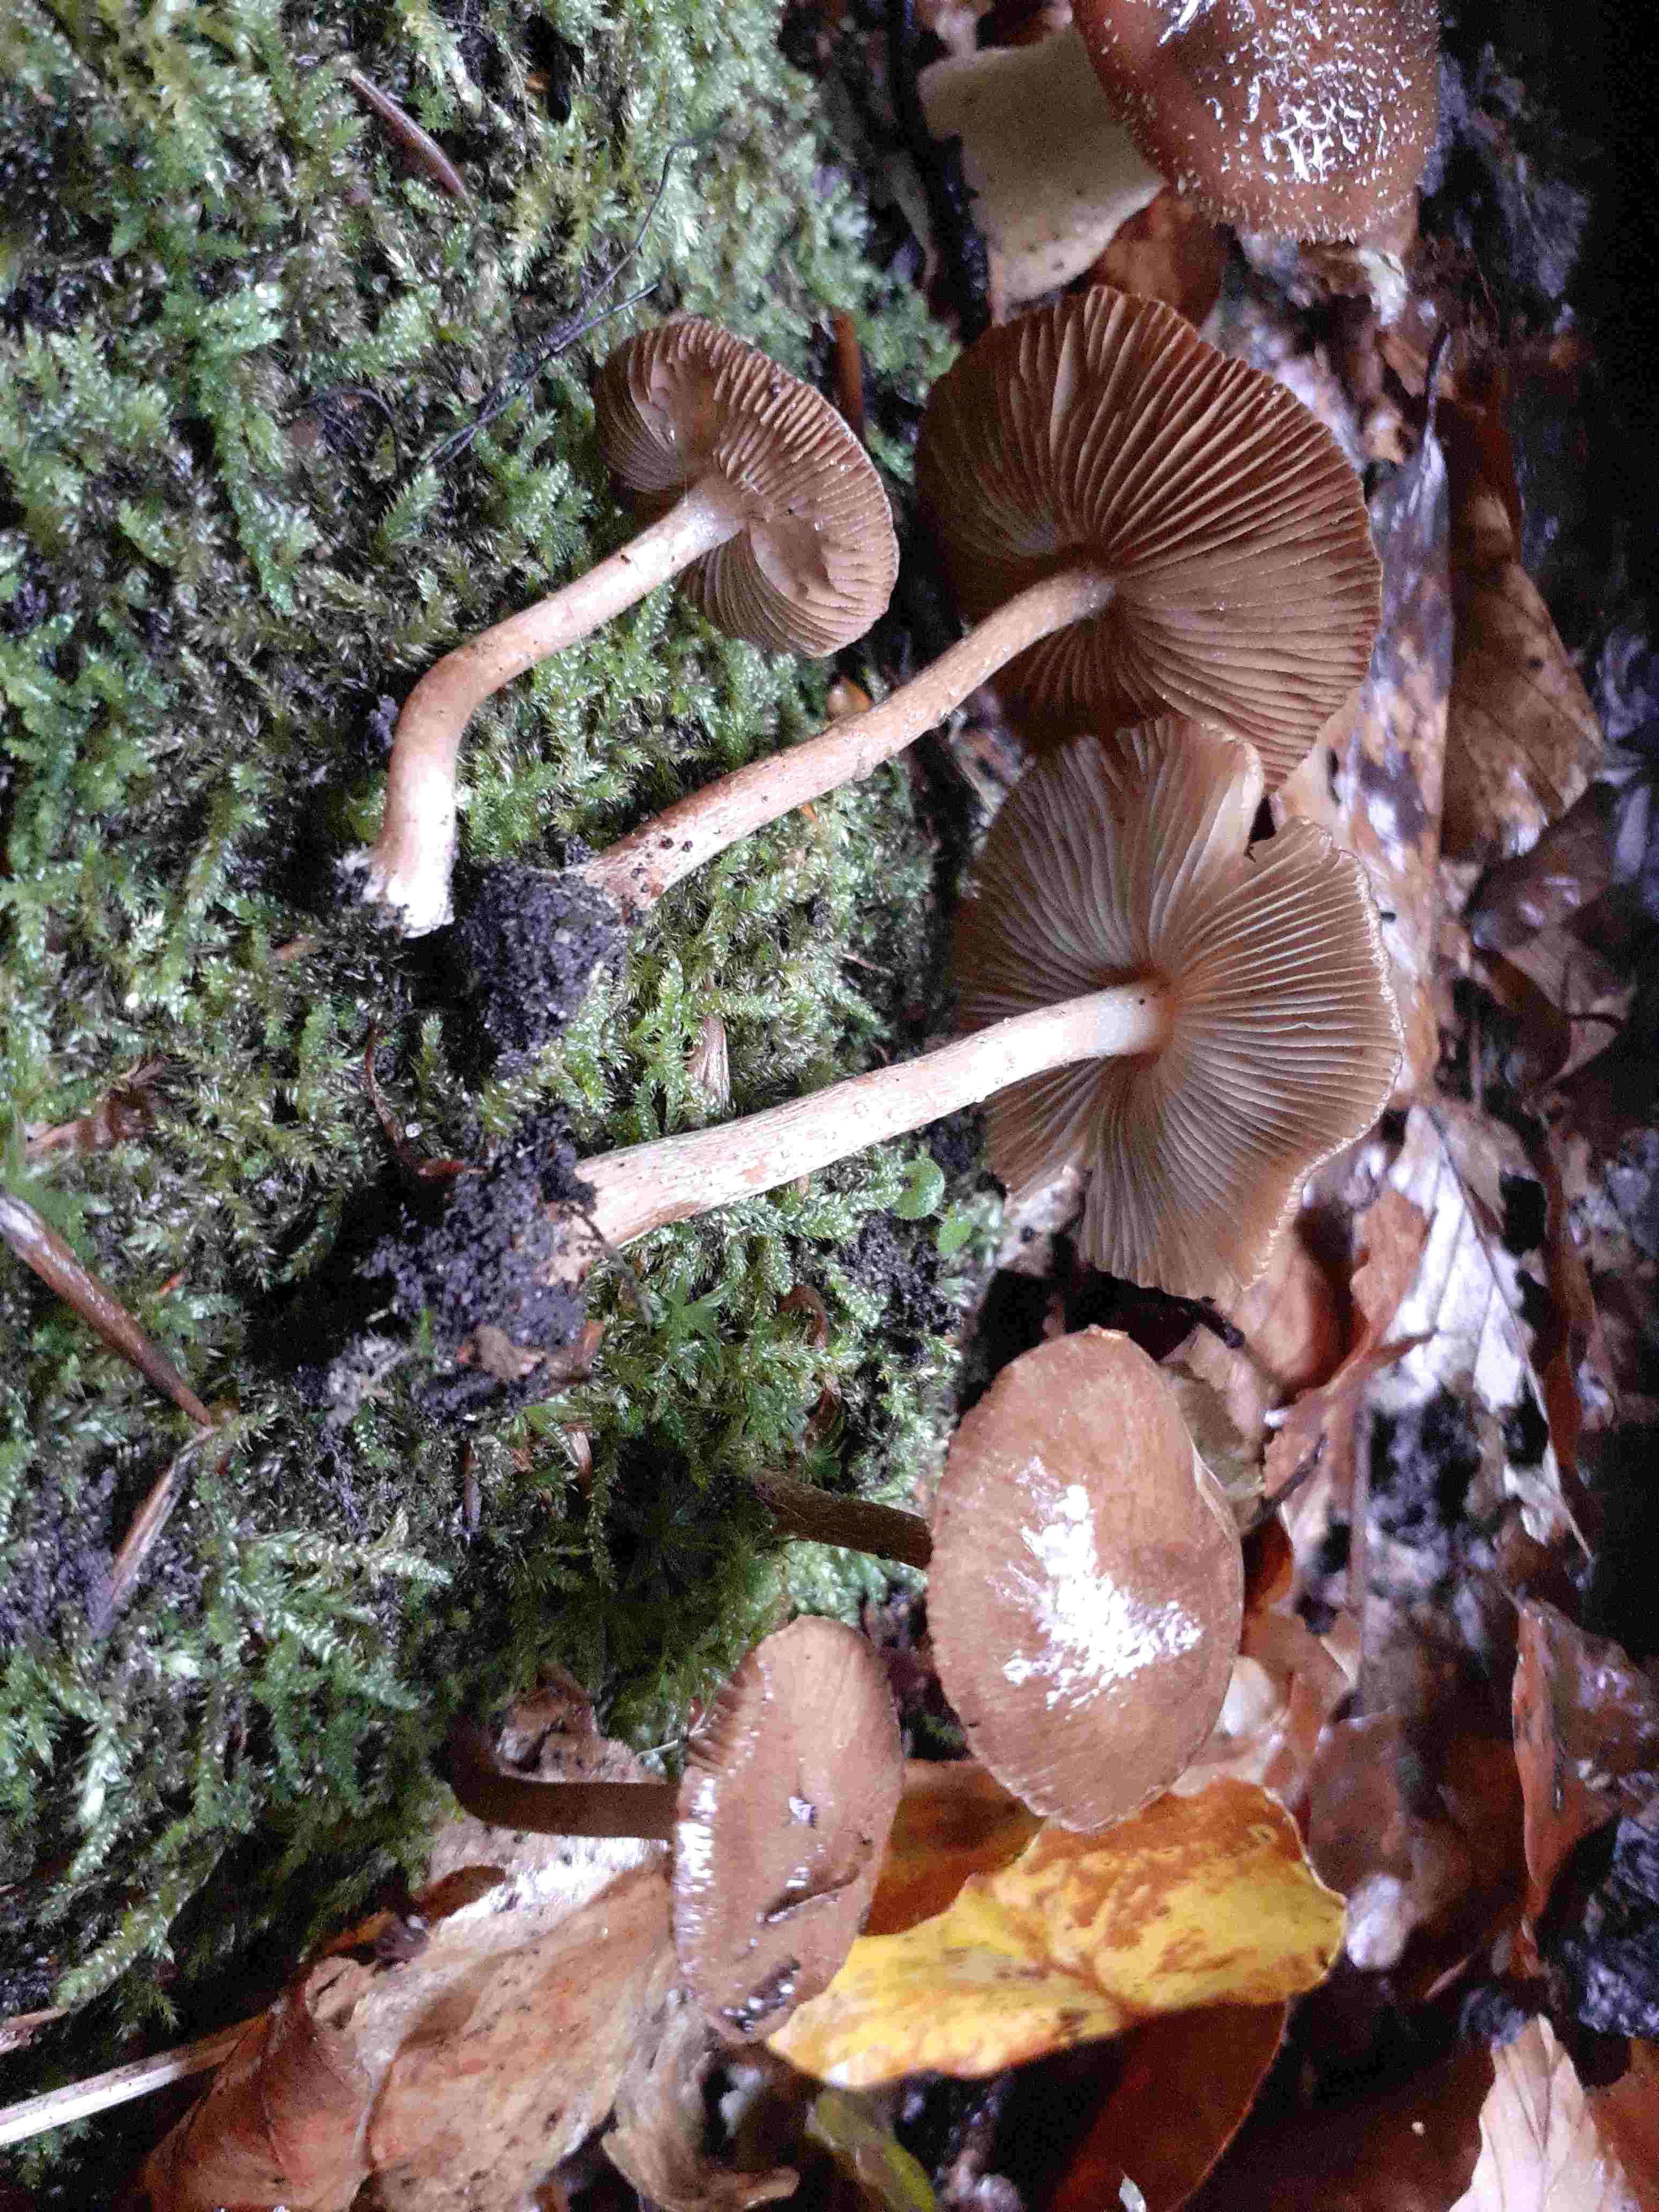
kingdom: Fungi
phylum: Basidiomycota
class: Agaricomycetes
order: Agaricales
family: Inocybaceae
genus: Inocybe
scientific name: Inocybe napipes
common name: roeknoldet trævlhat
